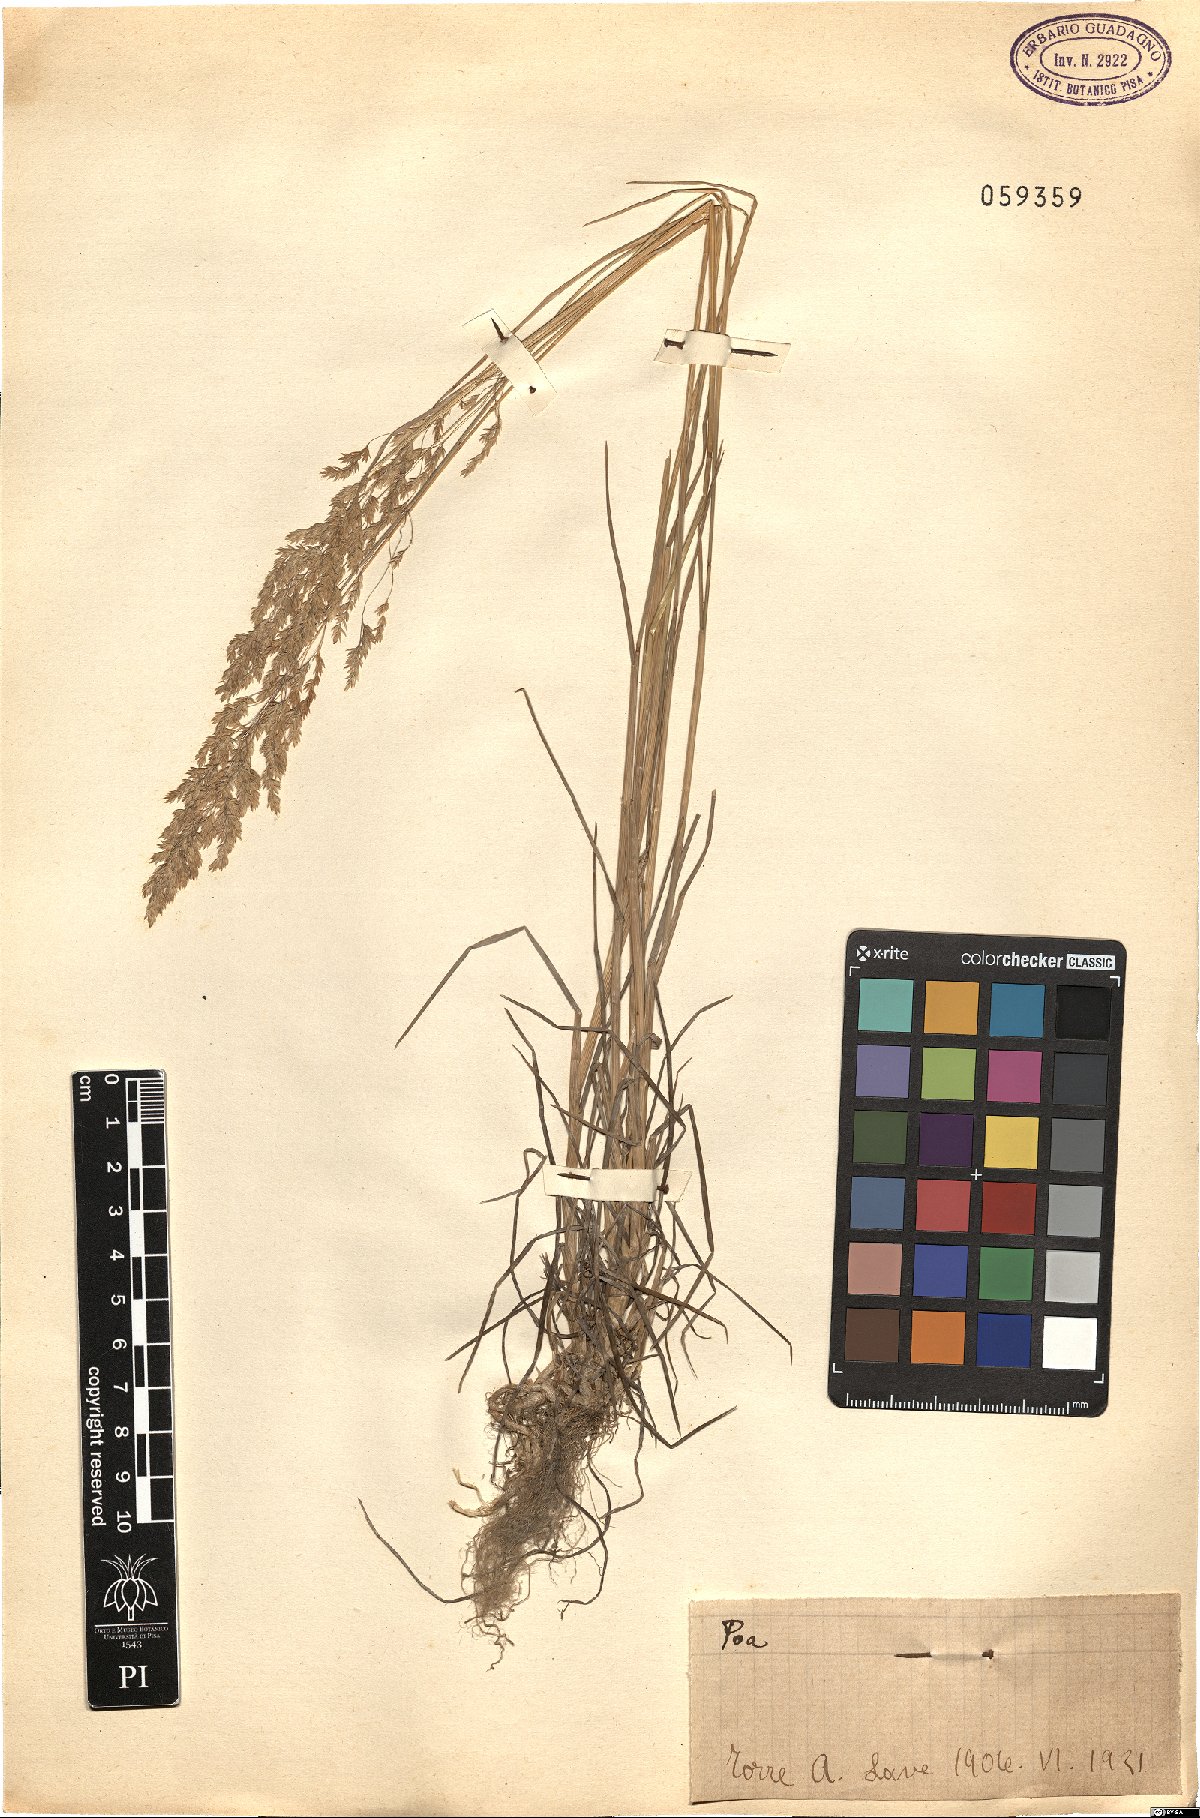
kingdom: Plantae
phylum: Tracheophyta
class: Liliopsida
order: Poales
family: Poaceae
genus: Poa
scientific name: Poa
